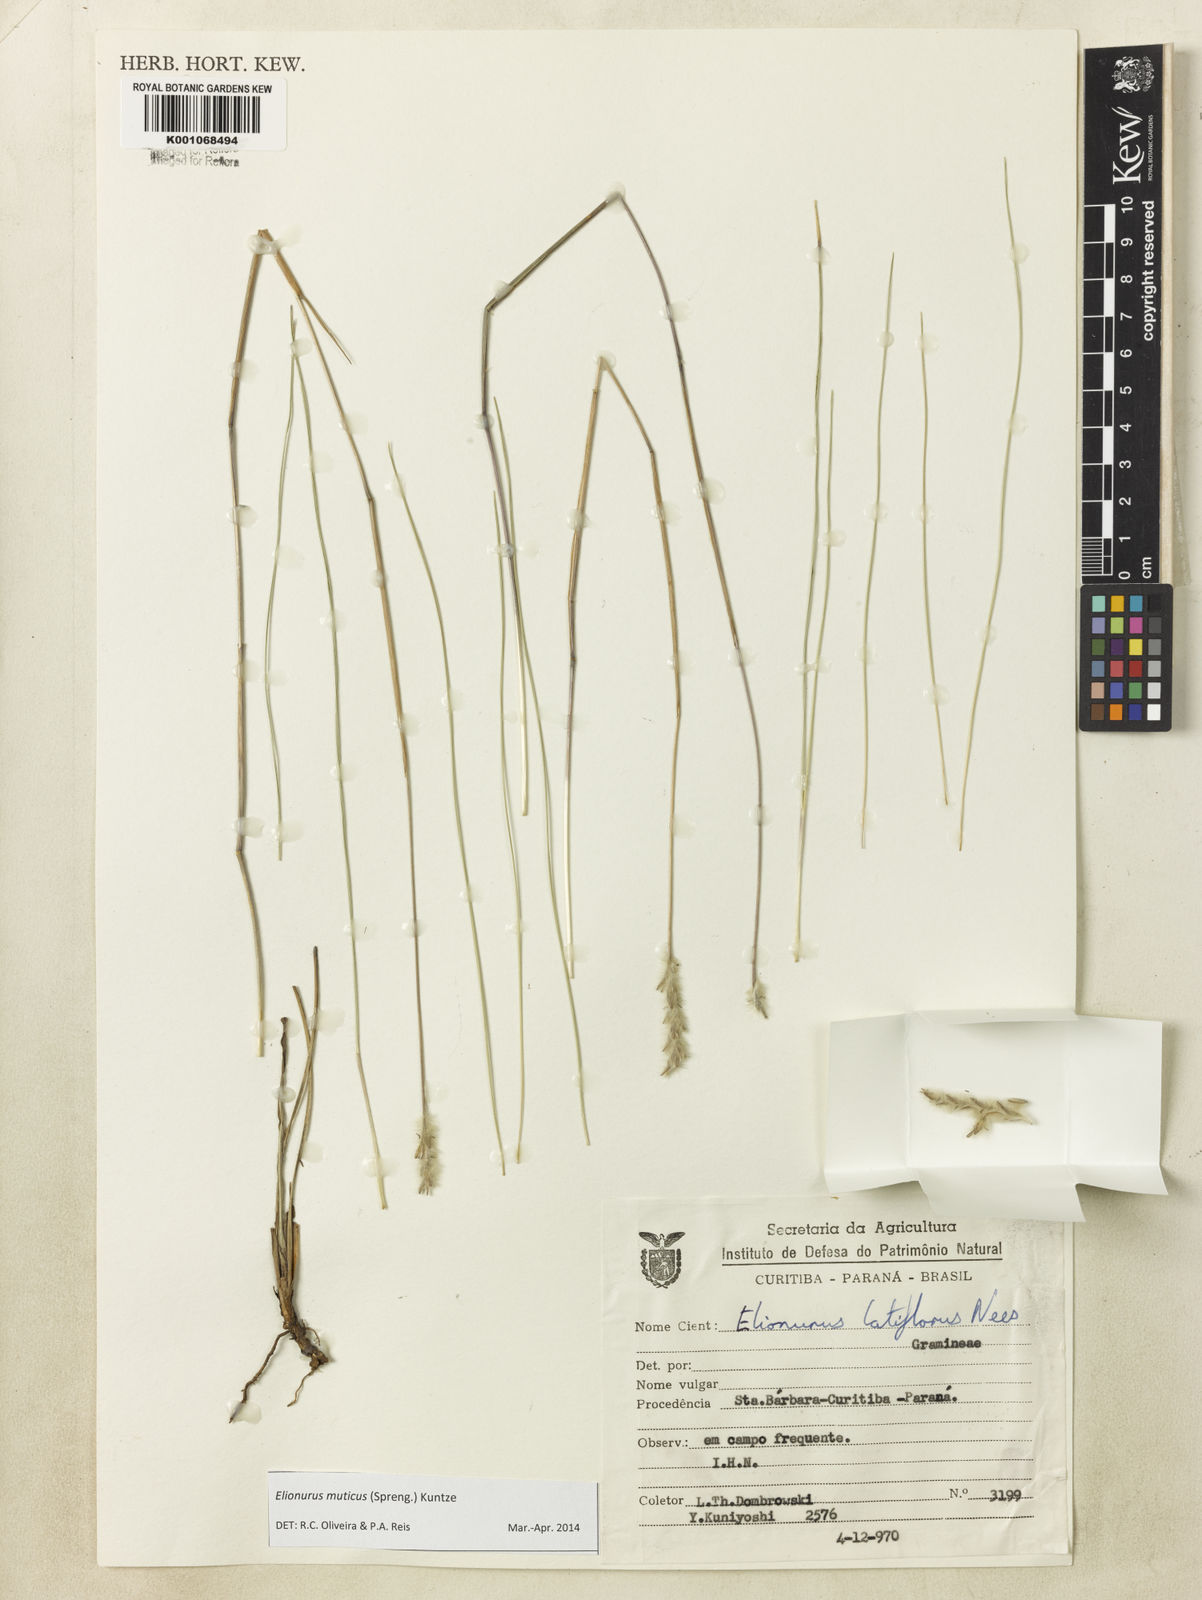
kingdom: Plantae
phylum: Tracheophyta
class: Liliopsida
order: Poales
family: Poaceae
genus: Elionurus
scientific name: Elionurus muticus
